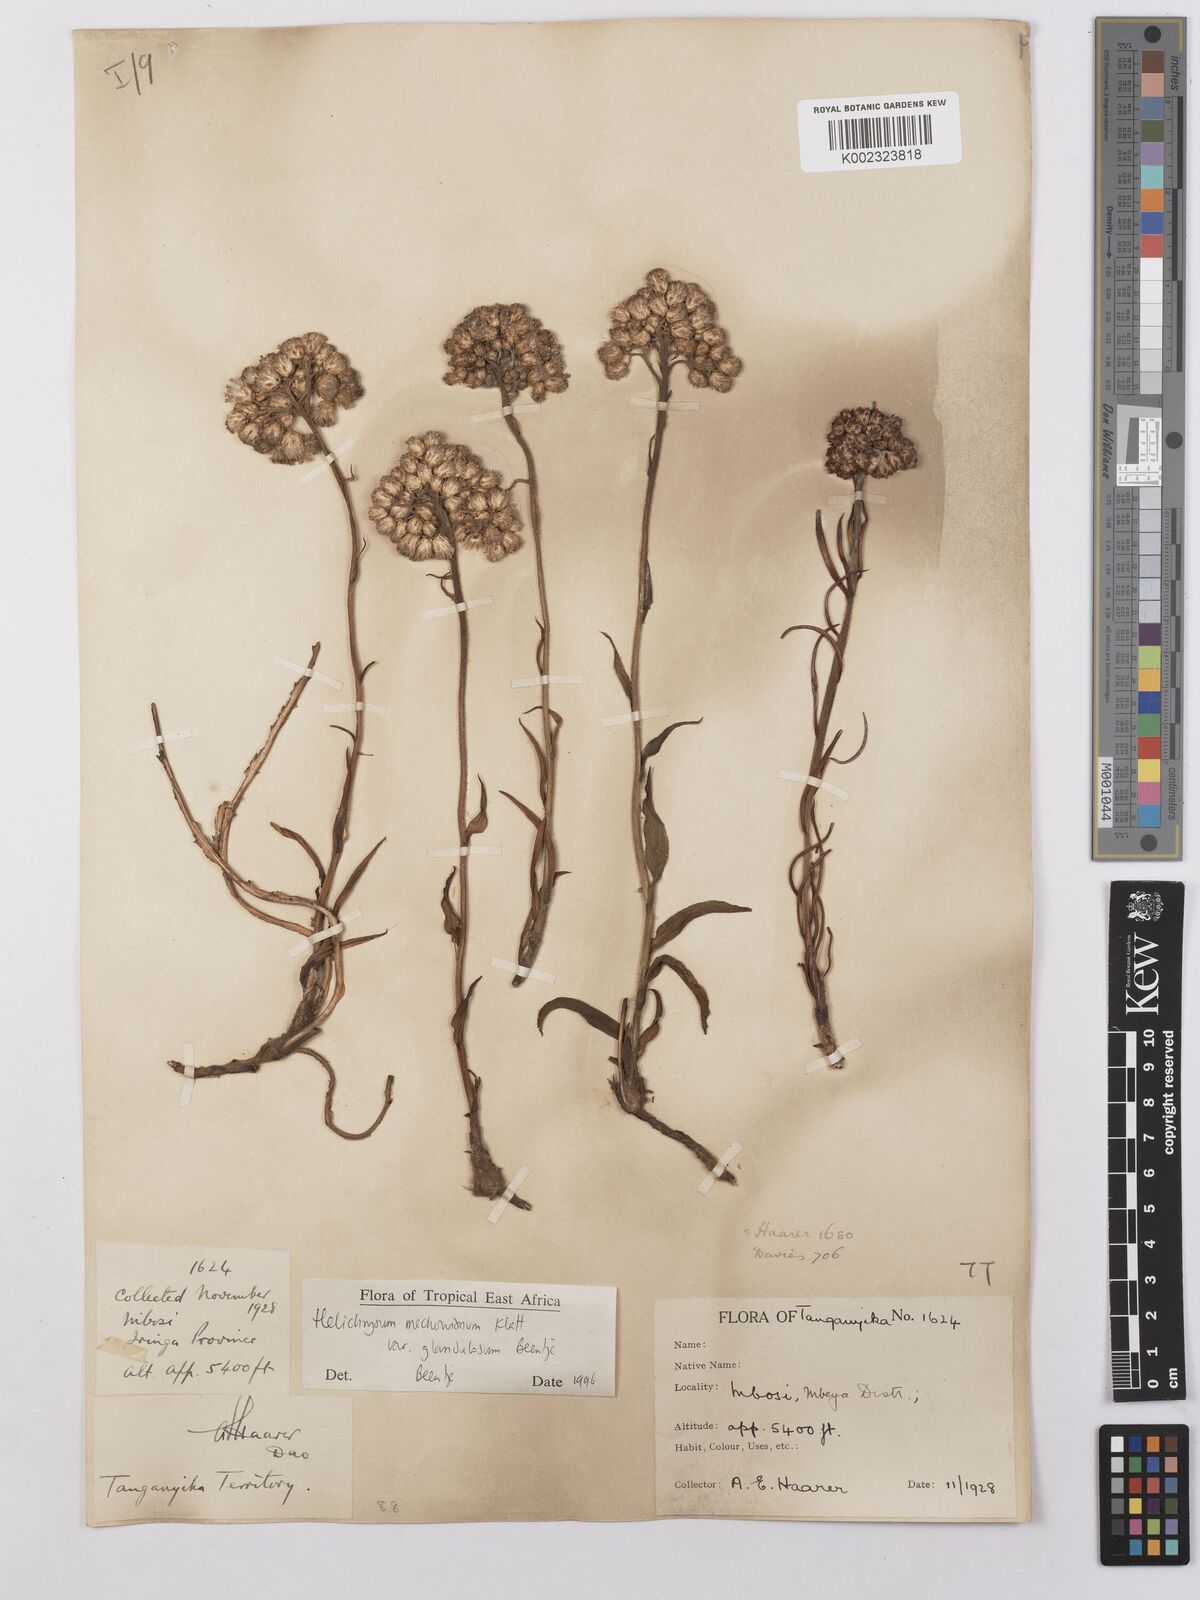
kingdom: Plantae
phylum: Tracheophyta
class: Magnoliopsida
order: Asterales
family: Asteraceae
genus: Helichrysum
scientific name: Helichrysum mechowianum
